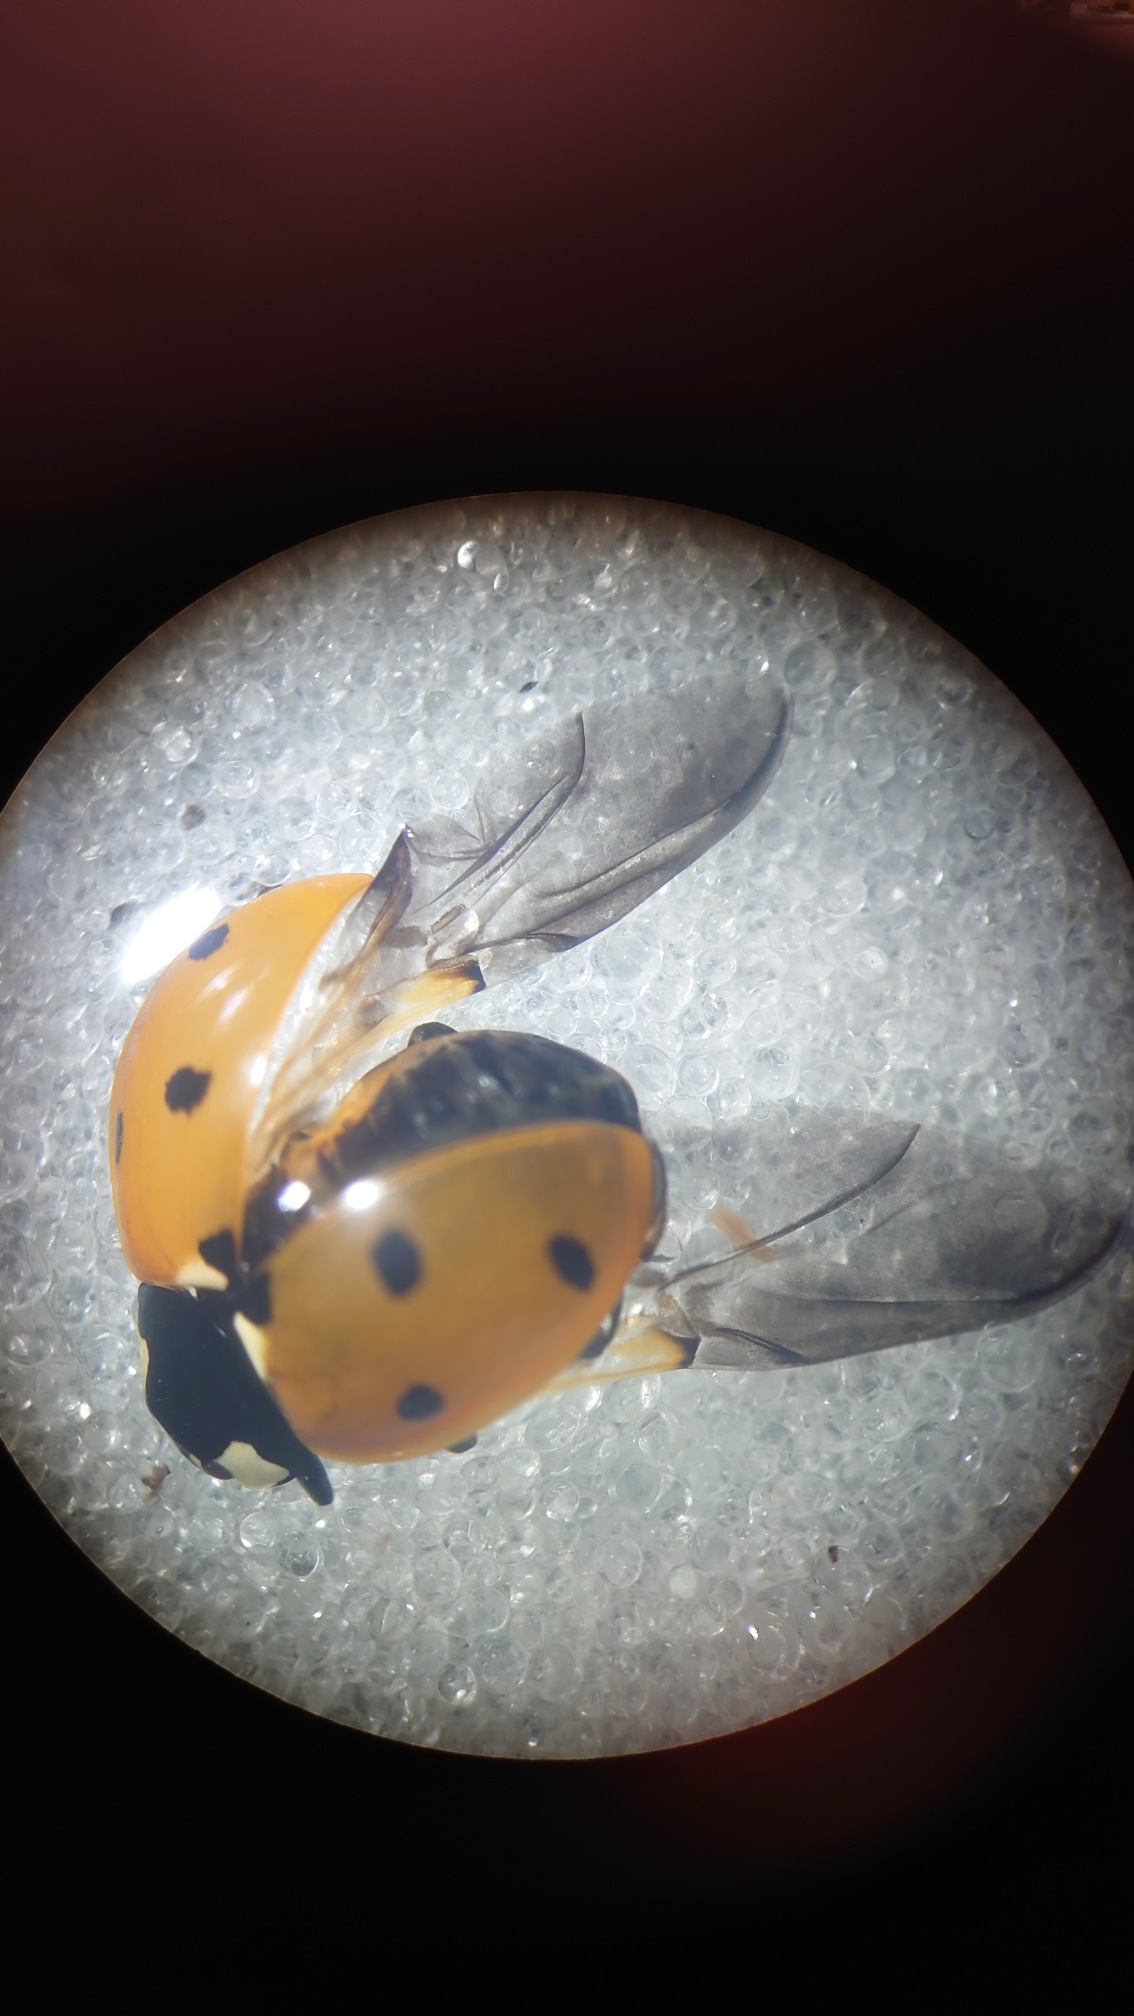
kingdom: Animalia
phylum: Arthropoda
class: Insecta
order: Coleoptera
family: Coccinellidae
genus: Coccinella
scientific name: Coccinella septempunctata
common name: Syvplettet mariehøne
